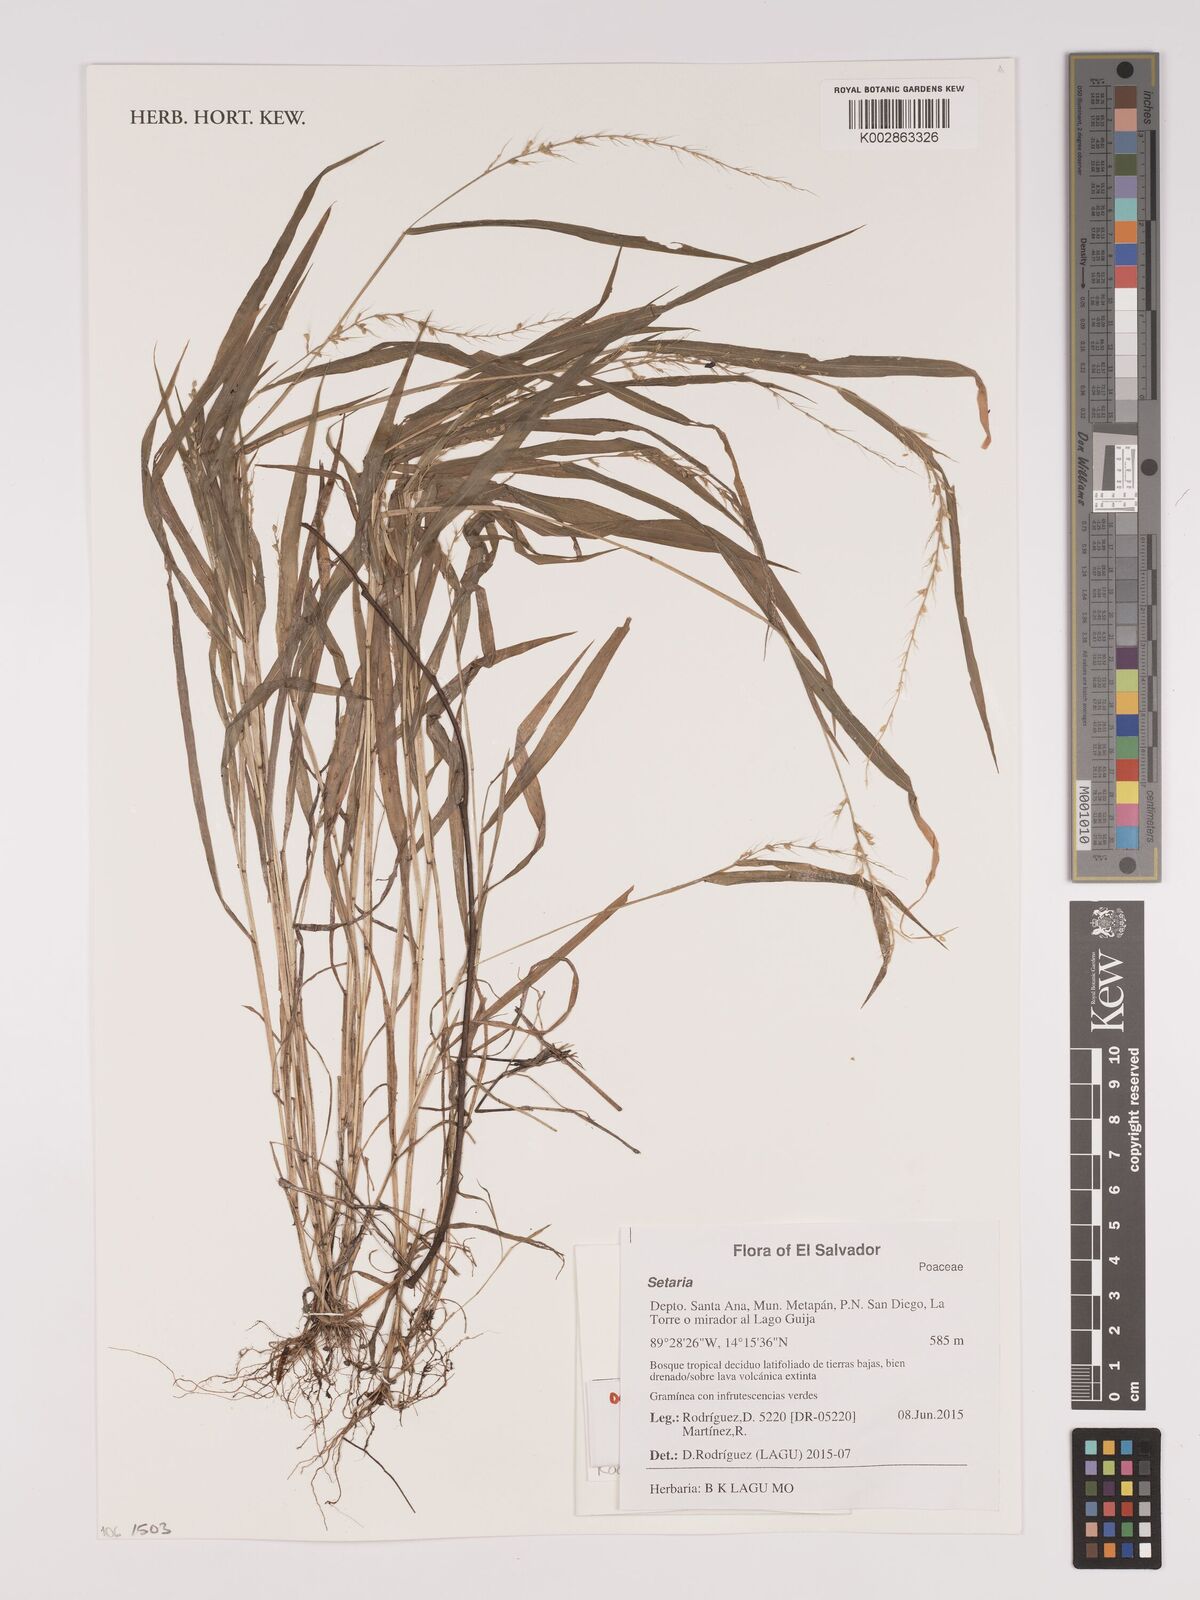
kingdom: Plantae
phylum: Tracheophyta
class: Liliopsida
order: Poales
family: Poaceae
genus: Setaria
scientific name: Setaria
